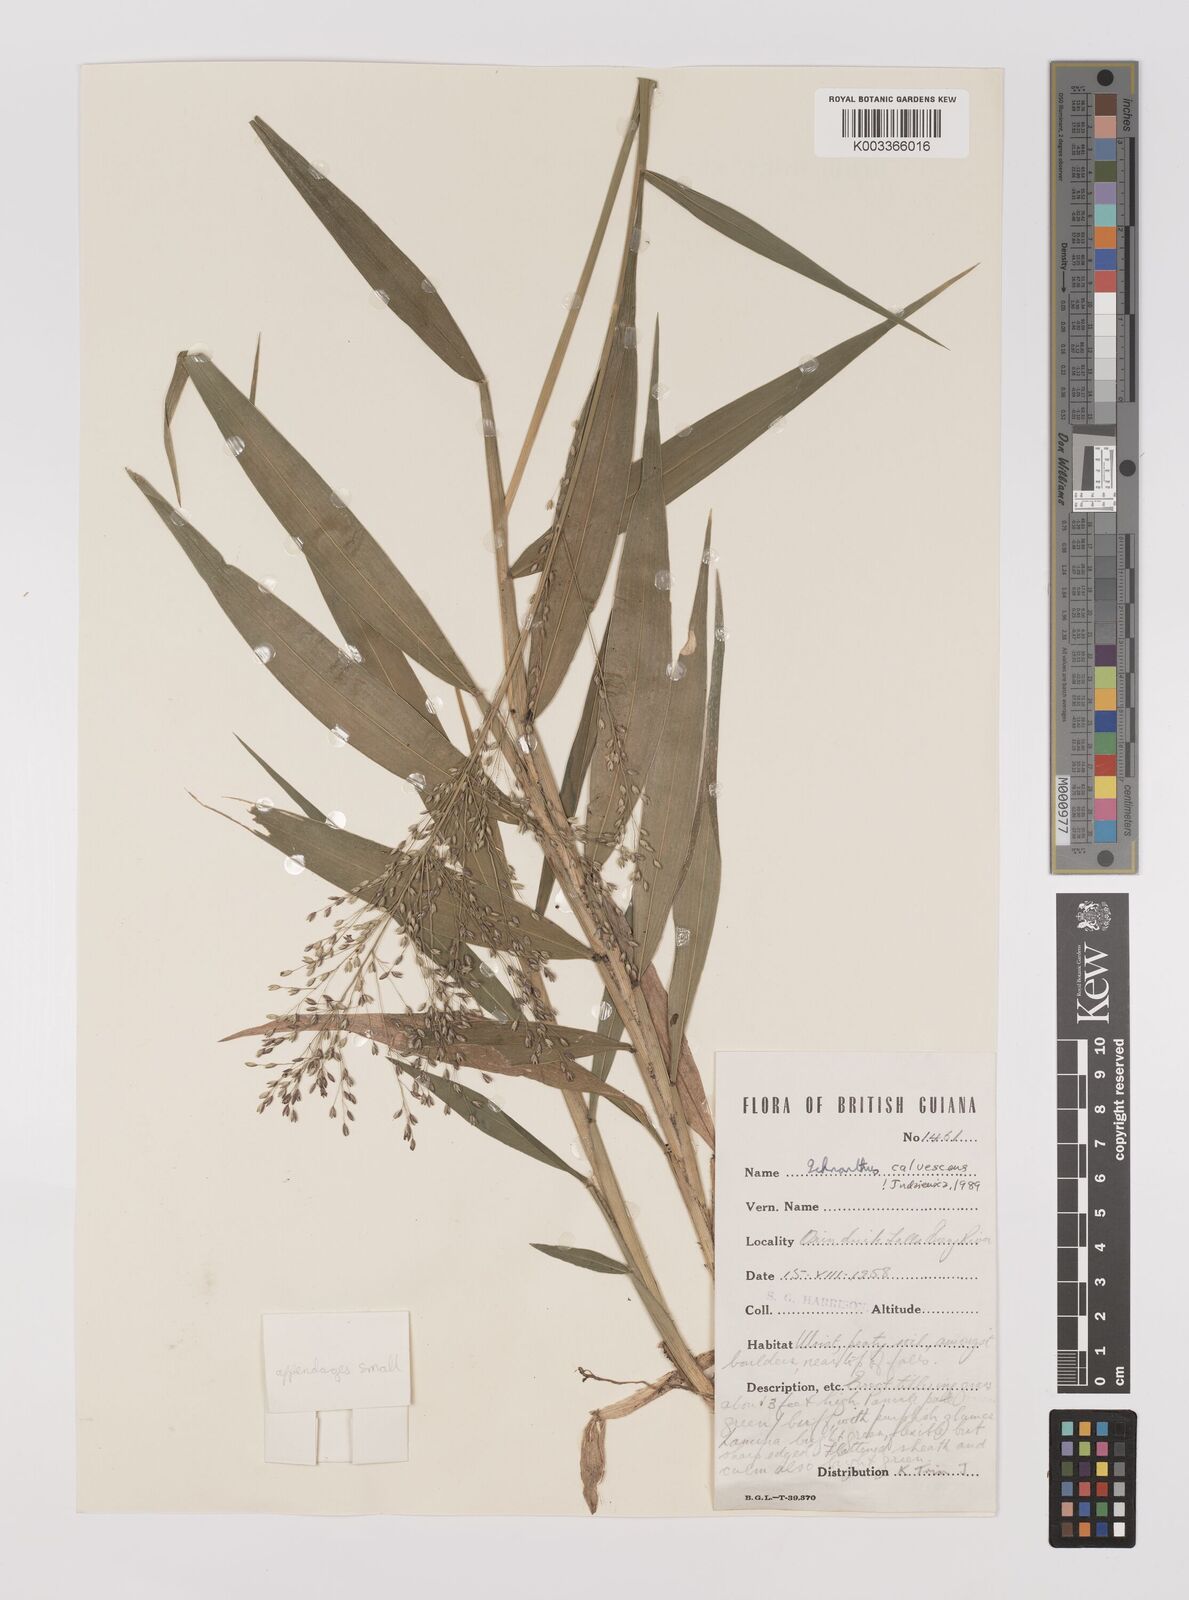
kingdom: Plantae
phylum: Tracheophyta
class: Liliopsida
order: Poales
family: Poaceae
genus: Ichnanthus
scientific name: Ichnanthus calvescens
